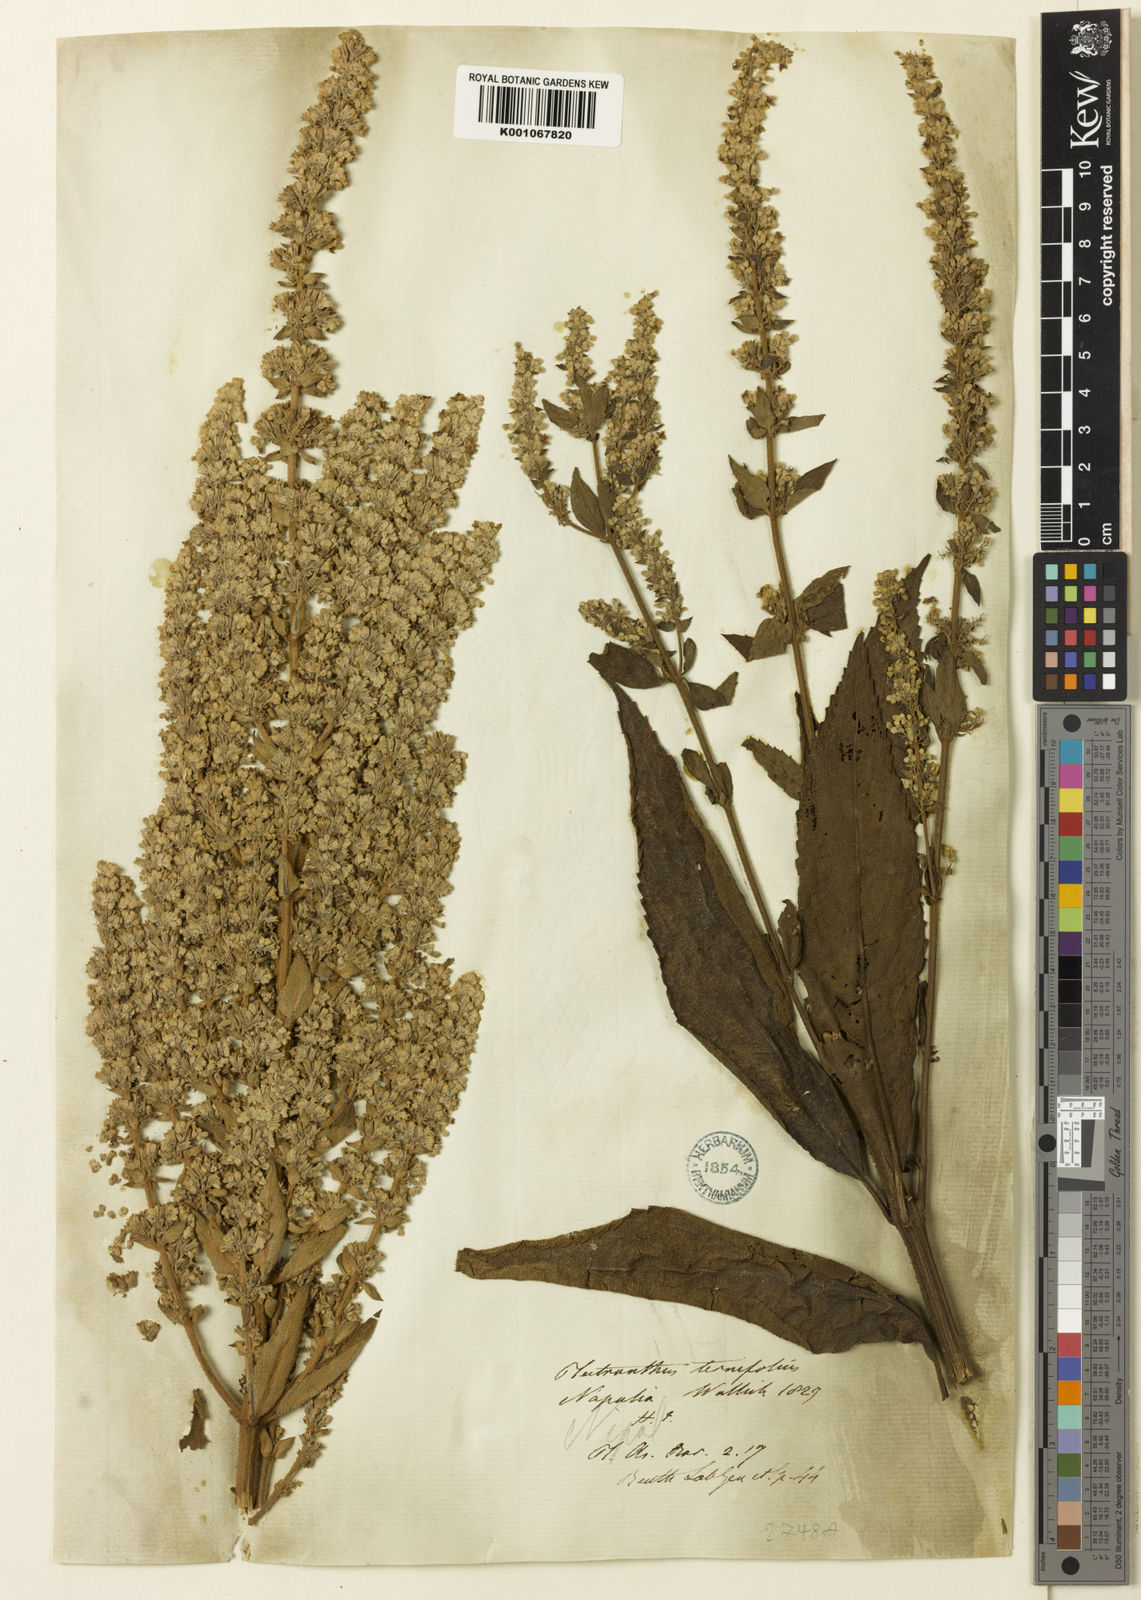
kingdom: Plantae
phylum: Tracheophyta
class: Magnoliopsida
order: Lamiales
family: Lamiaceae
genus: Isodon
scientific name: Isodon
